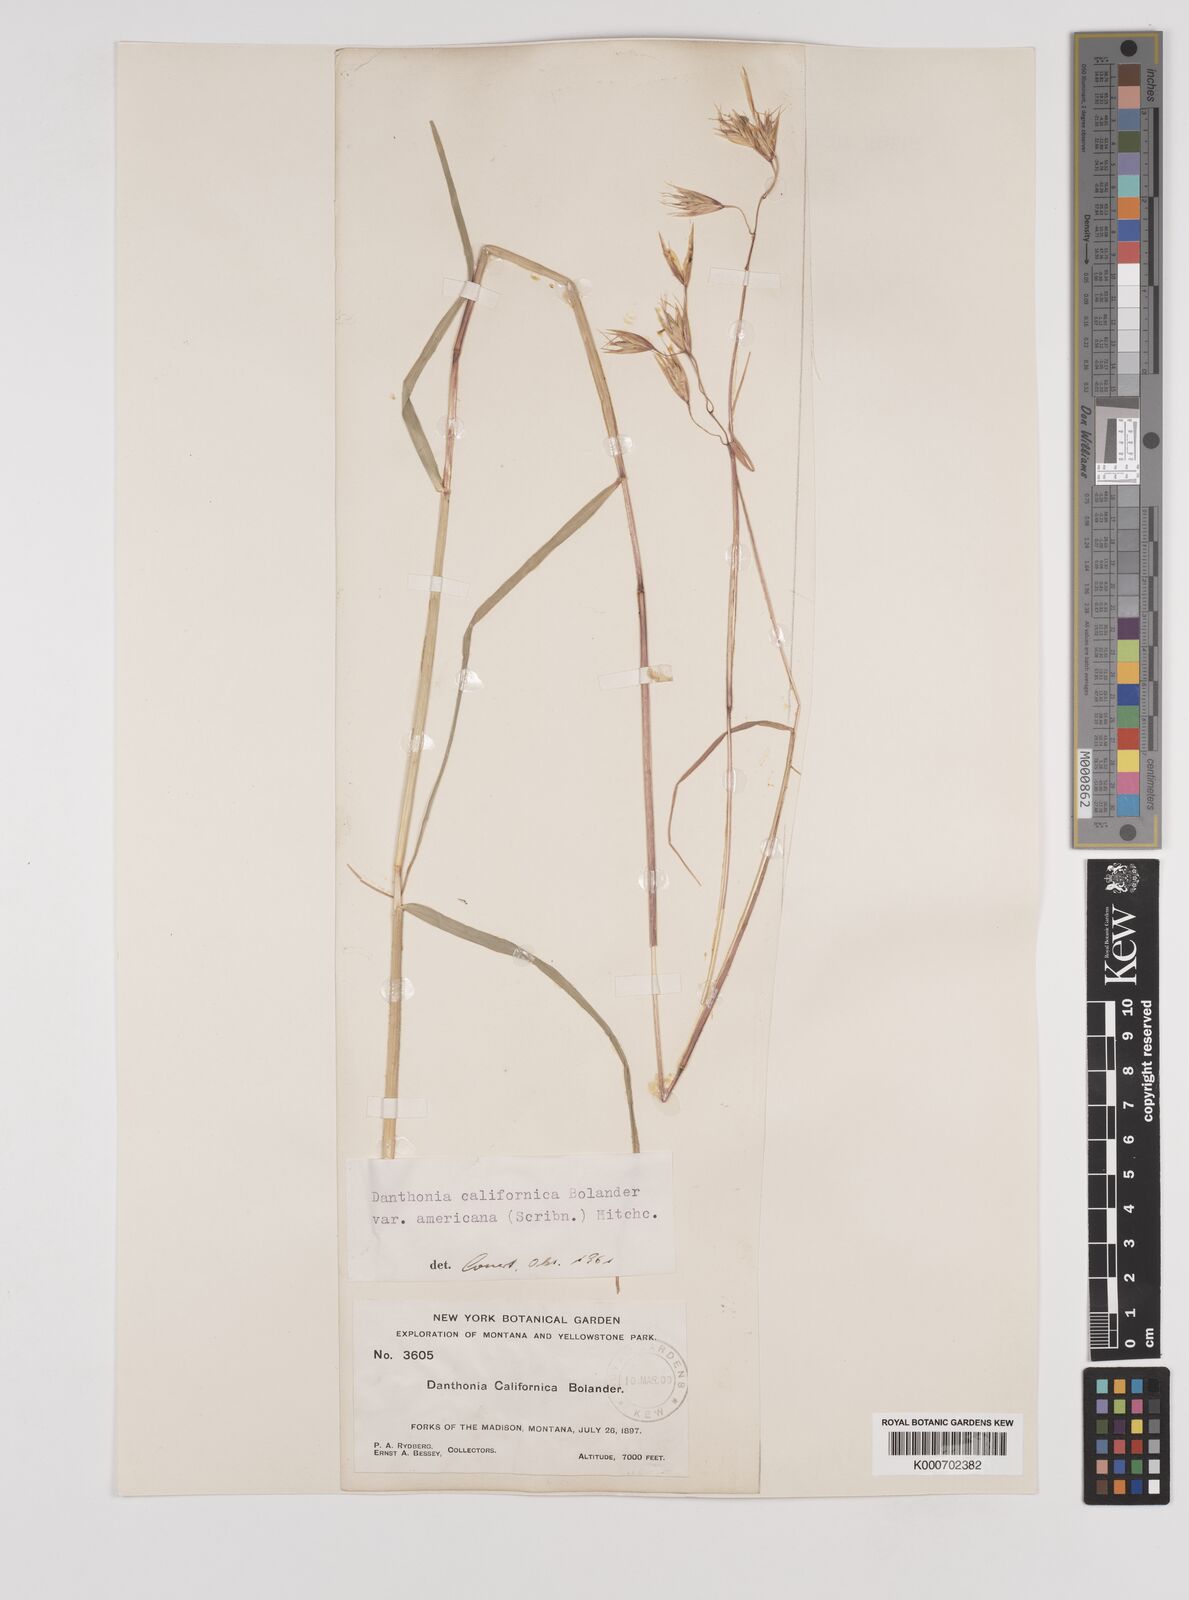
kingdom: Plantae
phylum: Tracheophyta
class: Liliopsida
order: Poales
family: Poaceae
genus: Danthonia
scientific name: Danthonia californica
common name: California oat grass
